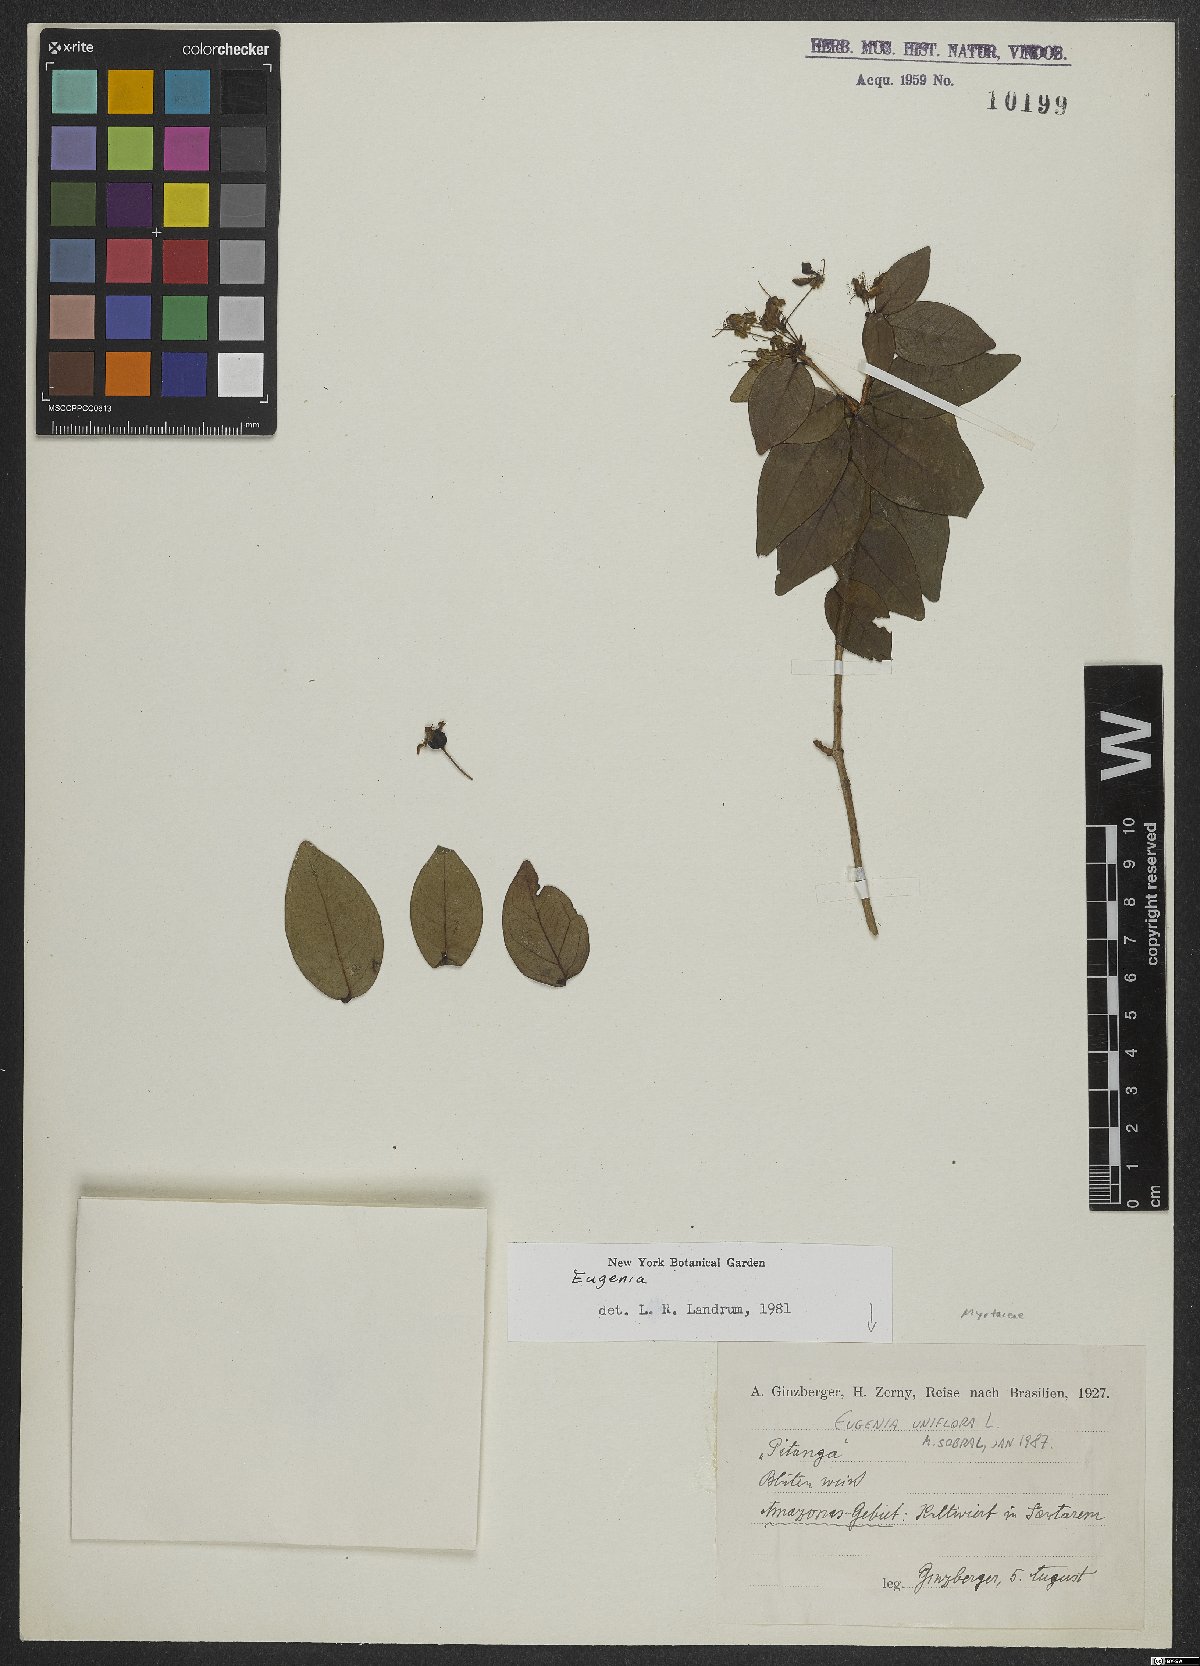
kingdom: Plantae
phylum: Tracheophyta
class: Magnoliopsida
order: Myrtales
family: Myrtaceae
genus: Eugenia
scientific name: Eugenia uniflora
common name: Surinam cherry
